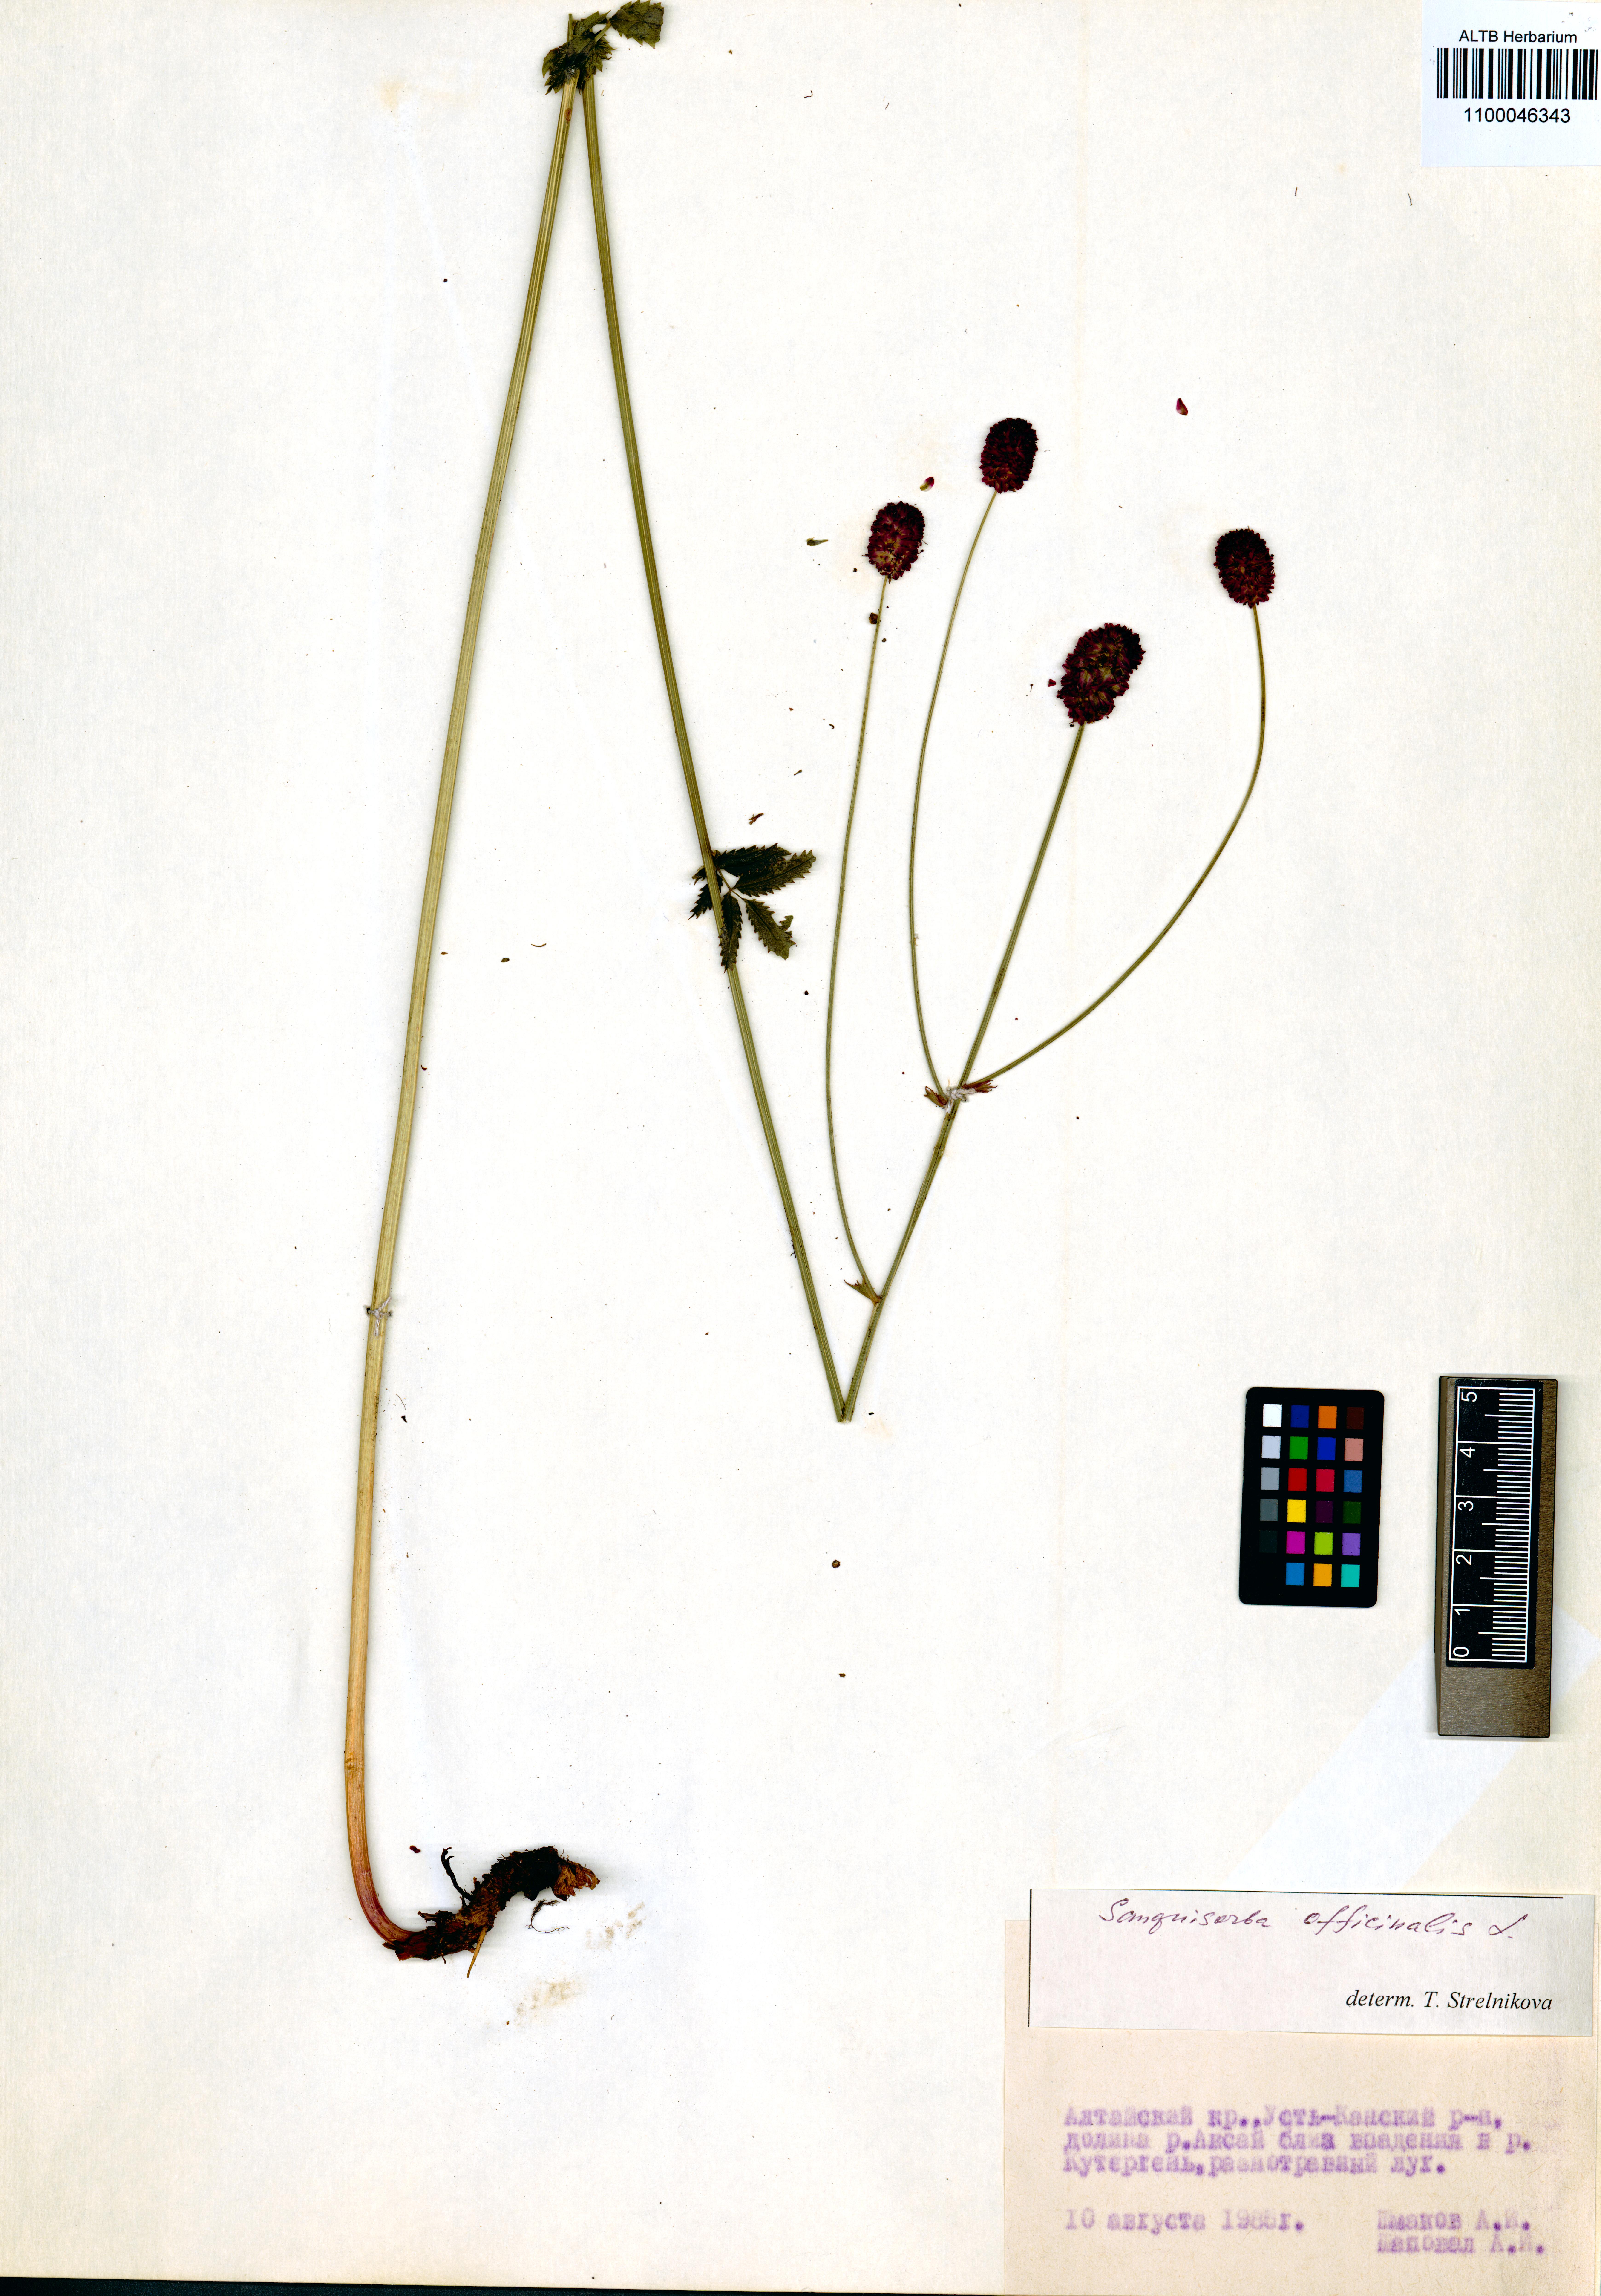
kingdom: Plantae
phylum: Tracheophyta
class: Magnoliopsida
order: Rosales
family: Rosaceae
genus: Sanguisorba
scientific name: Sanguisorba officinalis
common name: Great burnet
